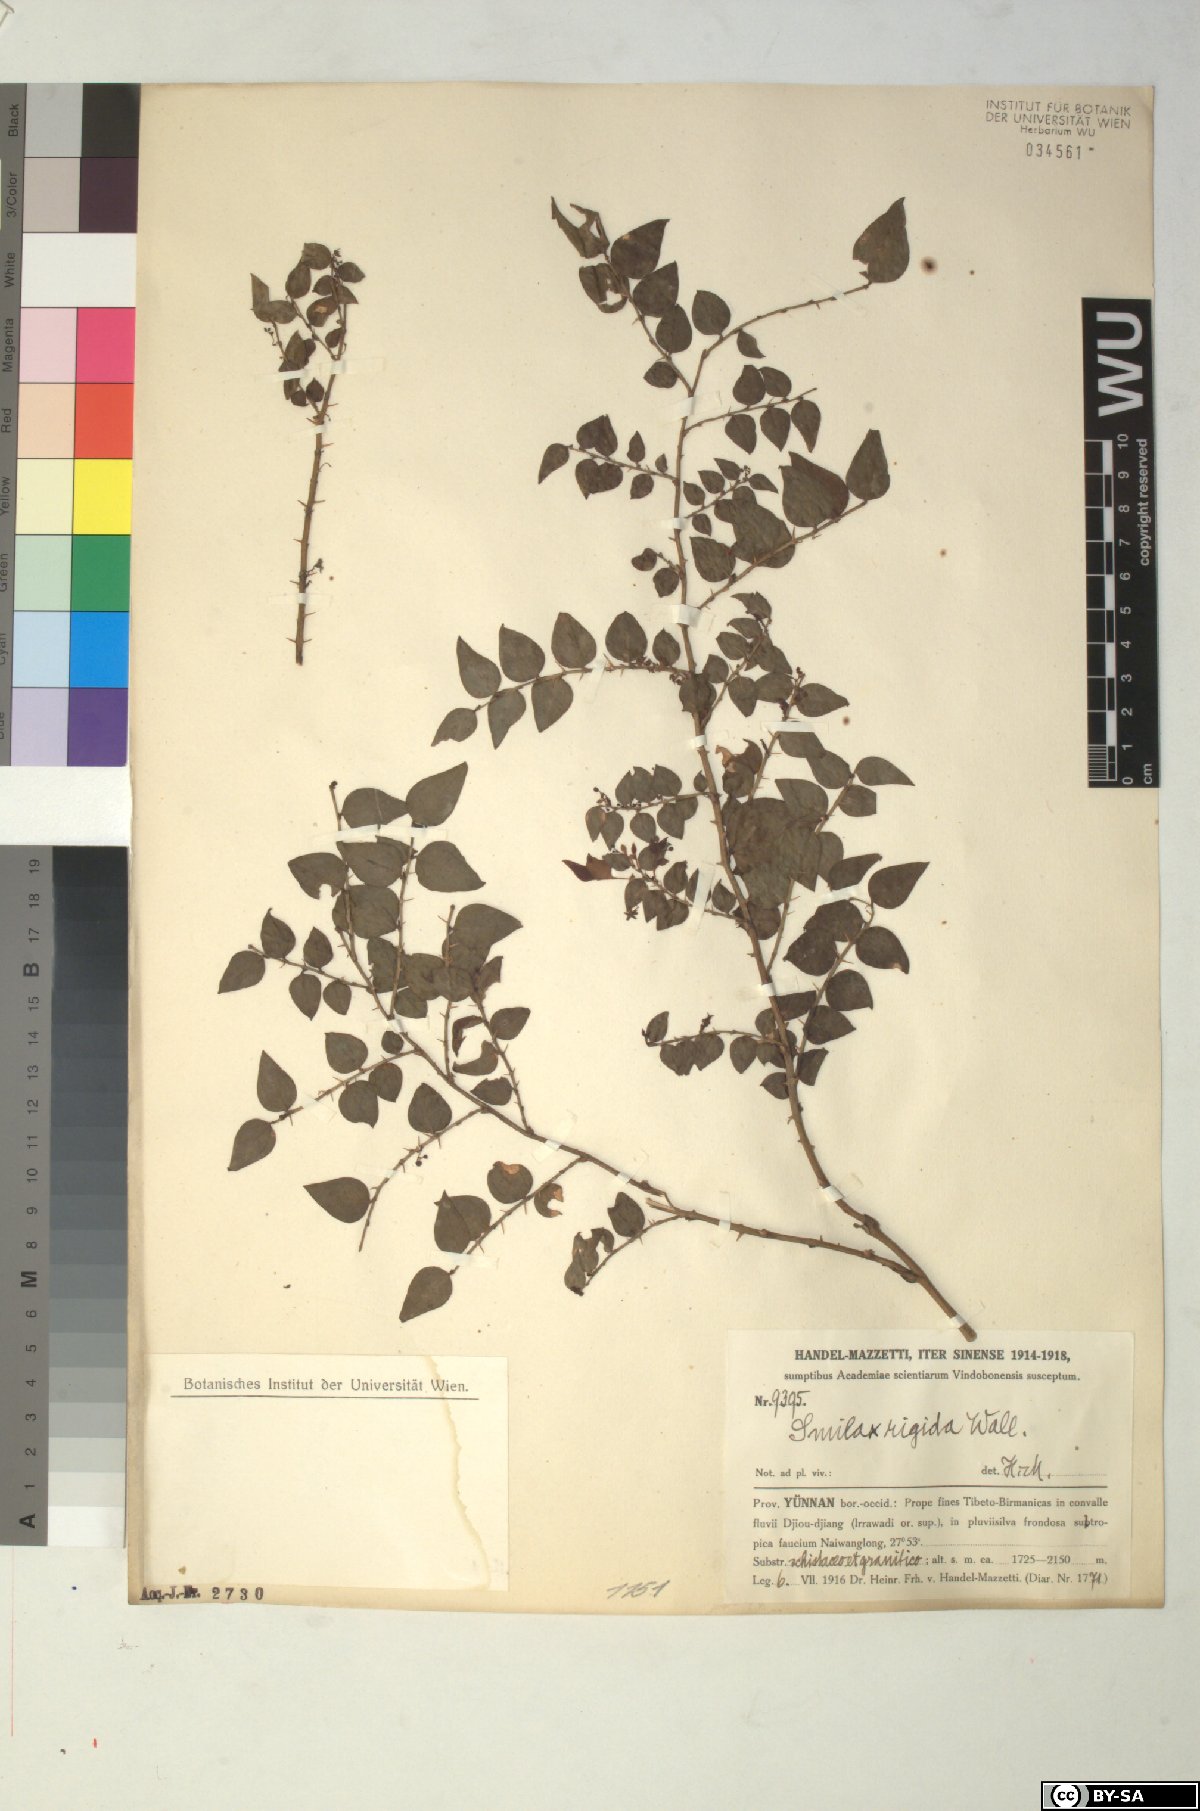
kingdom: Plantae
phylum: Tracheophyta
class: Liliopsida
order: Liliales
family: Smilacaceae
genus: Smilax
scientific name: Smilax munita
